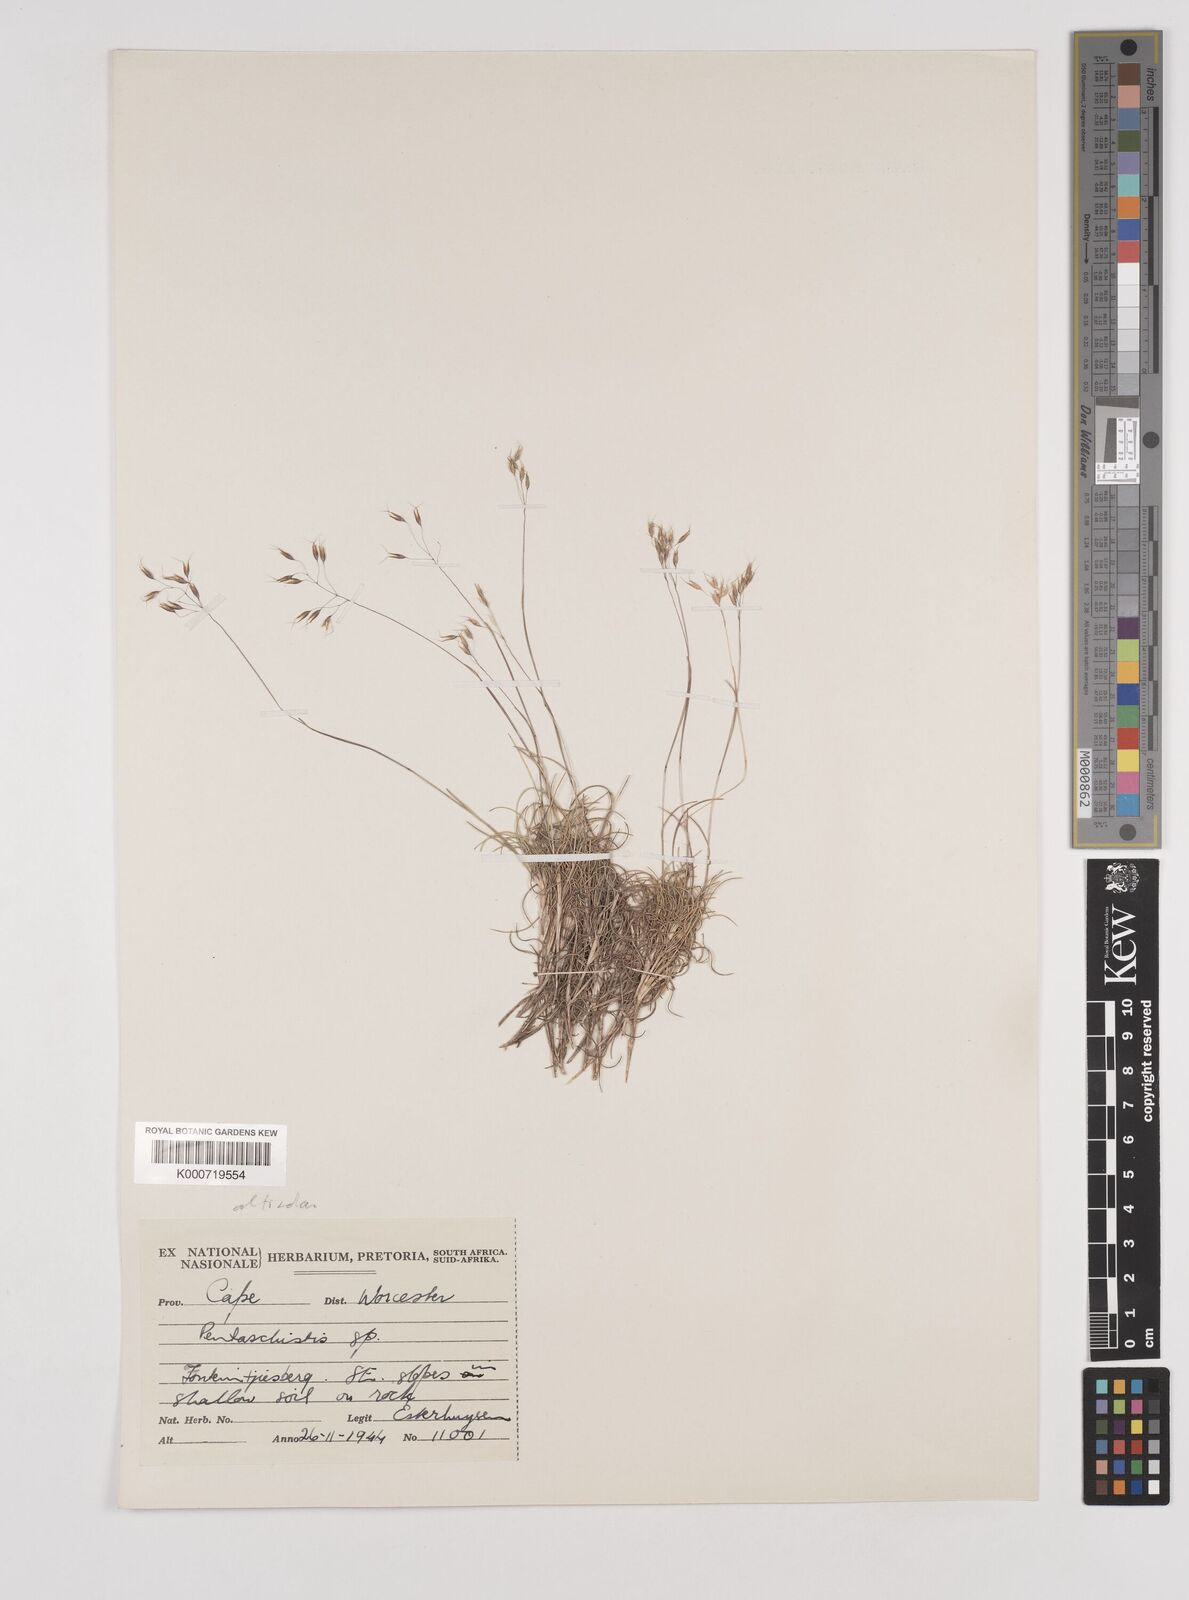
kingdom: Plantae
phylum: Tracheophyta
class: Liliopsida
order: Poales
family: Poaceae
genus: Pentameris
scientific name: Pentameris alticola
